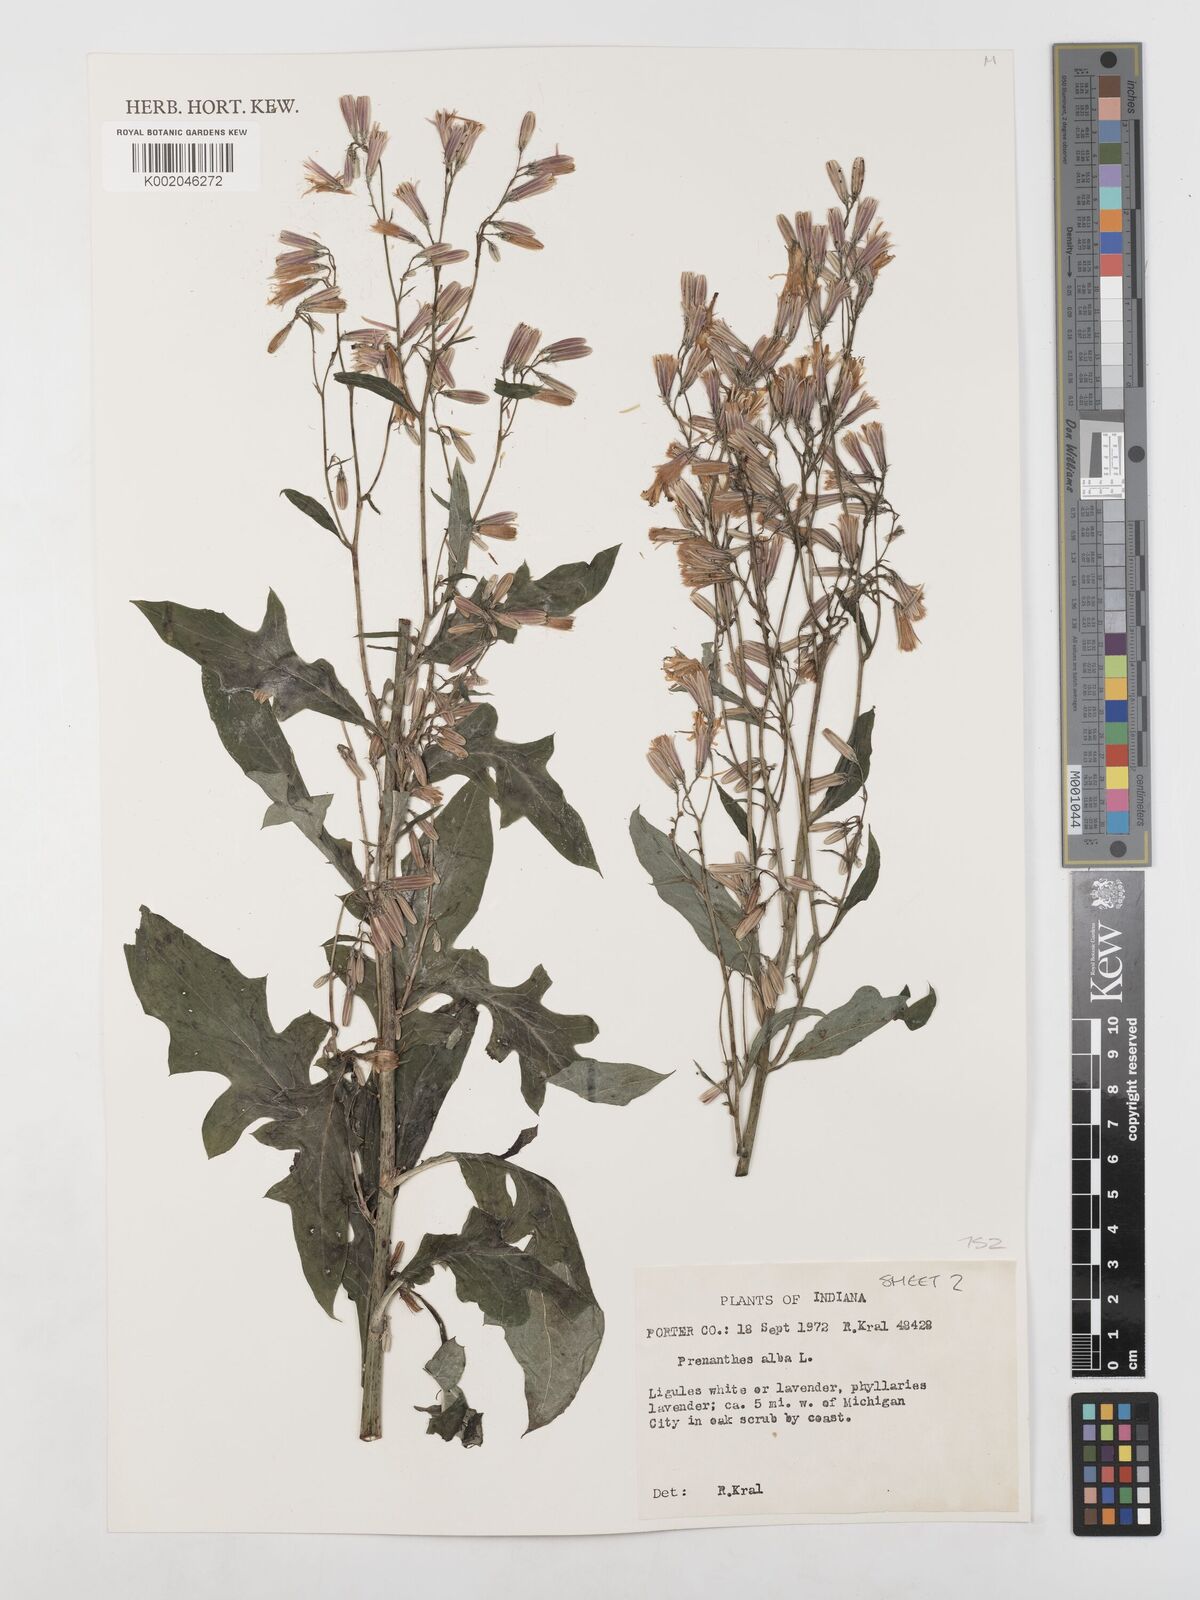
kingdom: Plantae
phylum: Tracheophyta
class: Magnoliopsida
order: Asterales
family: Asteraceae
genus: Nabalus
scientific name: Nabalus albus
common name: White rattlesnakeroot
